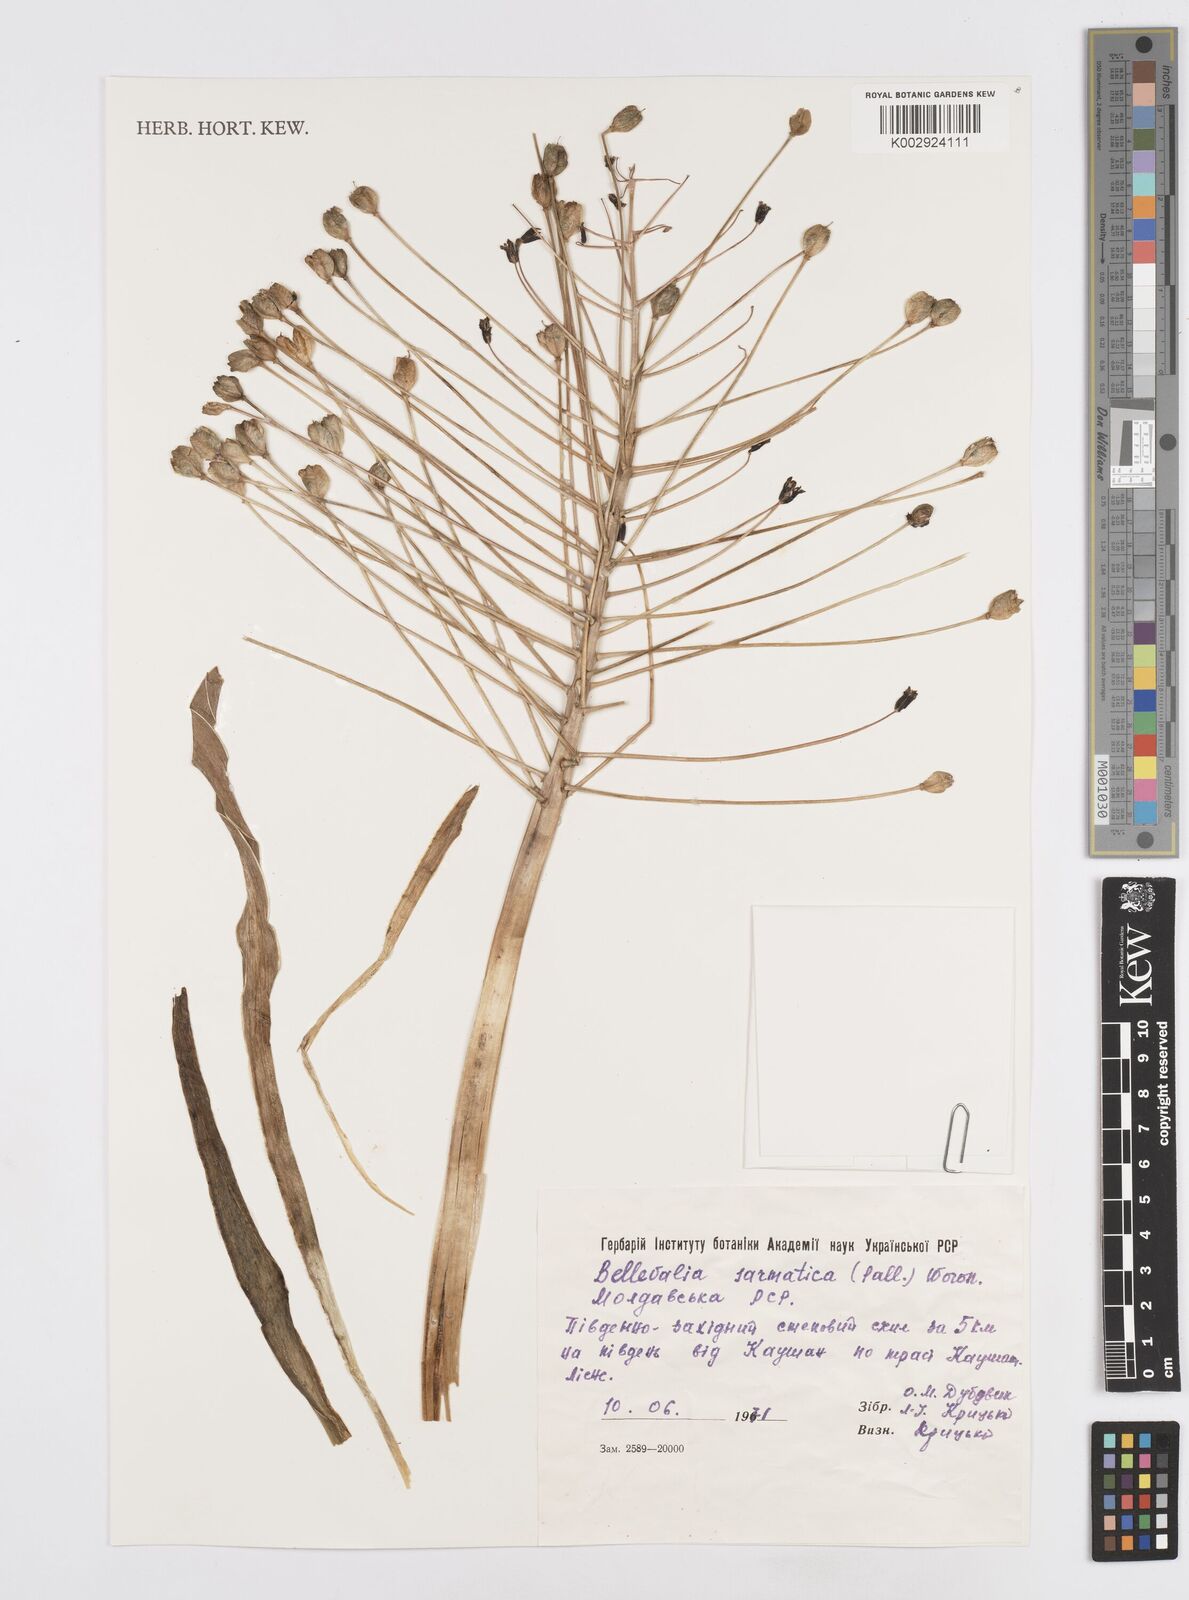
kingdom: Plantae
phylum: Tracheophyta
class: Liliopsida
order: Asparagales
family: Asparagaceae
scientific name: Asparagaceae
